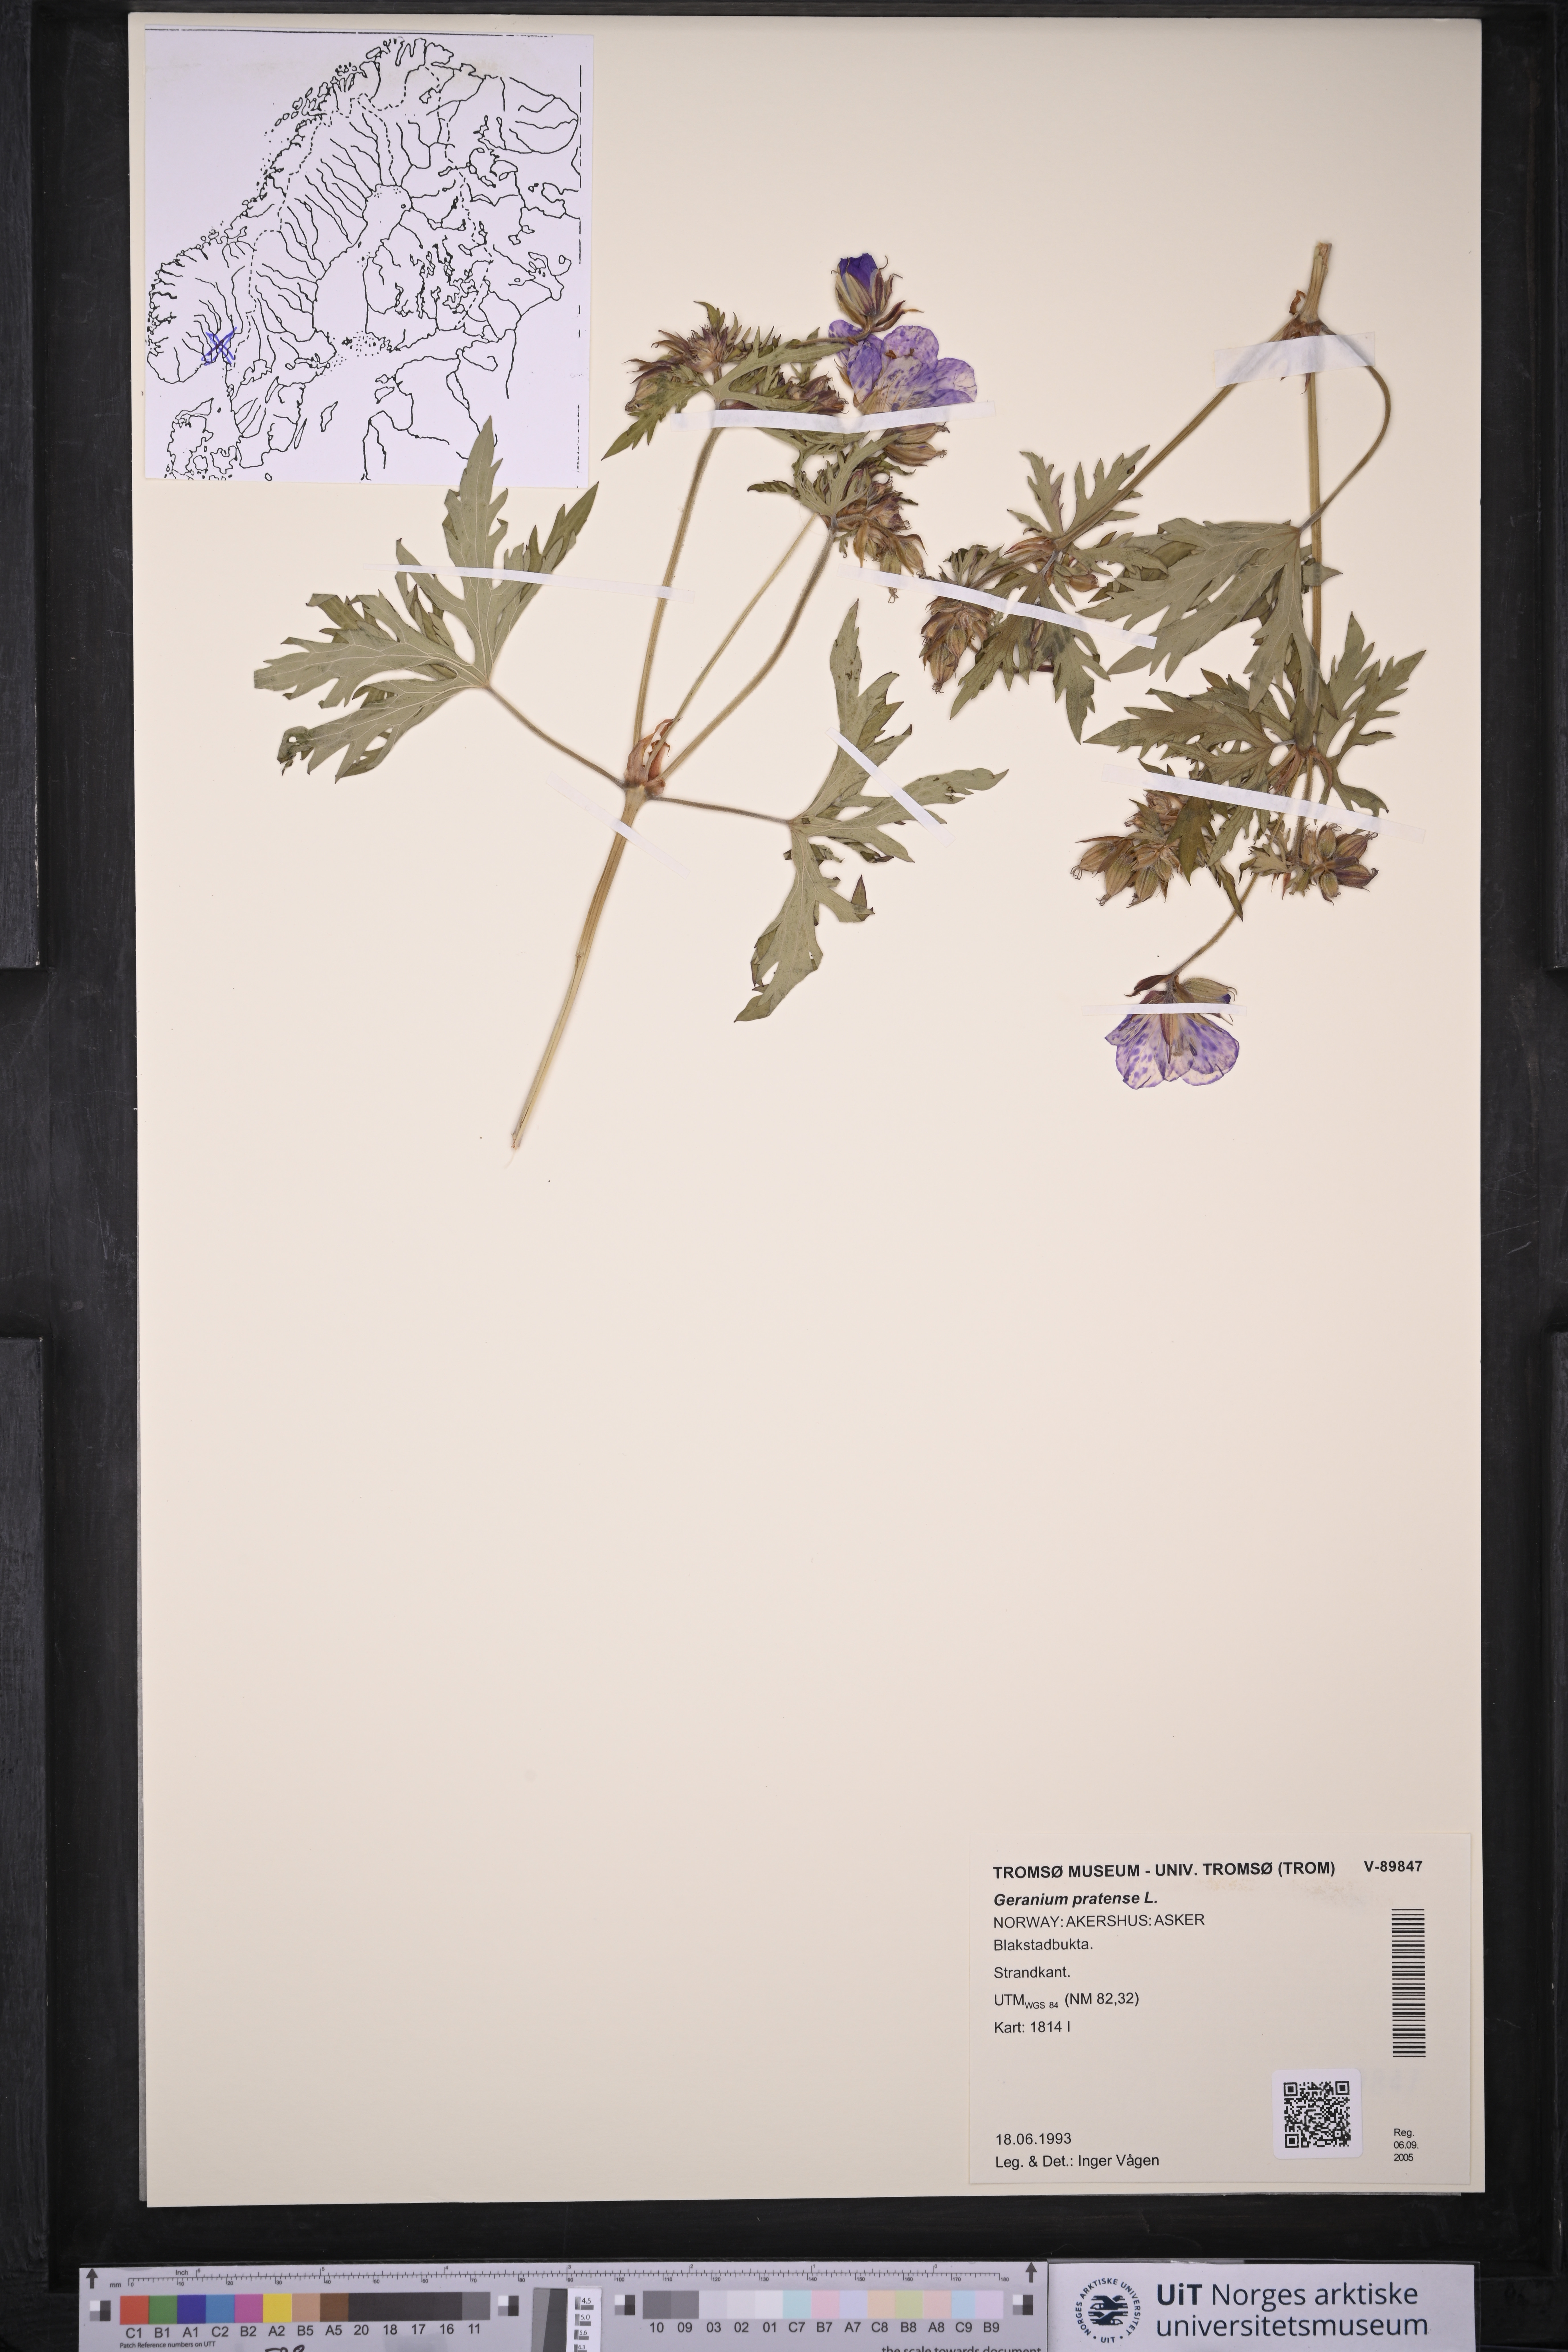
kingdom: Plantae
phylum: Tracheophyta
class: Magnoliopsida
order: Geraniales
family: Geraniaceae
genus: Geranium
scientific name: Geranium pratense
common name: Meadow crane's-bill
